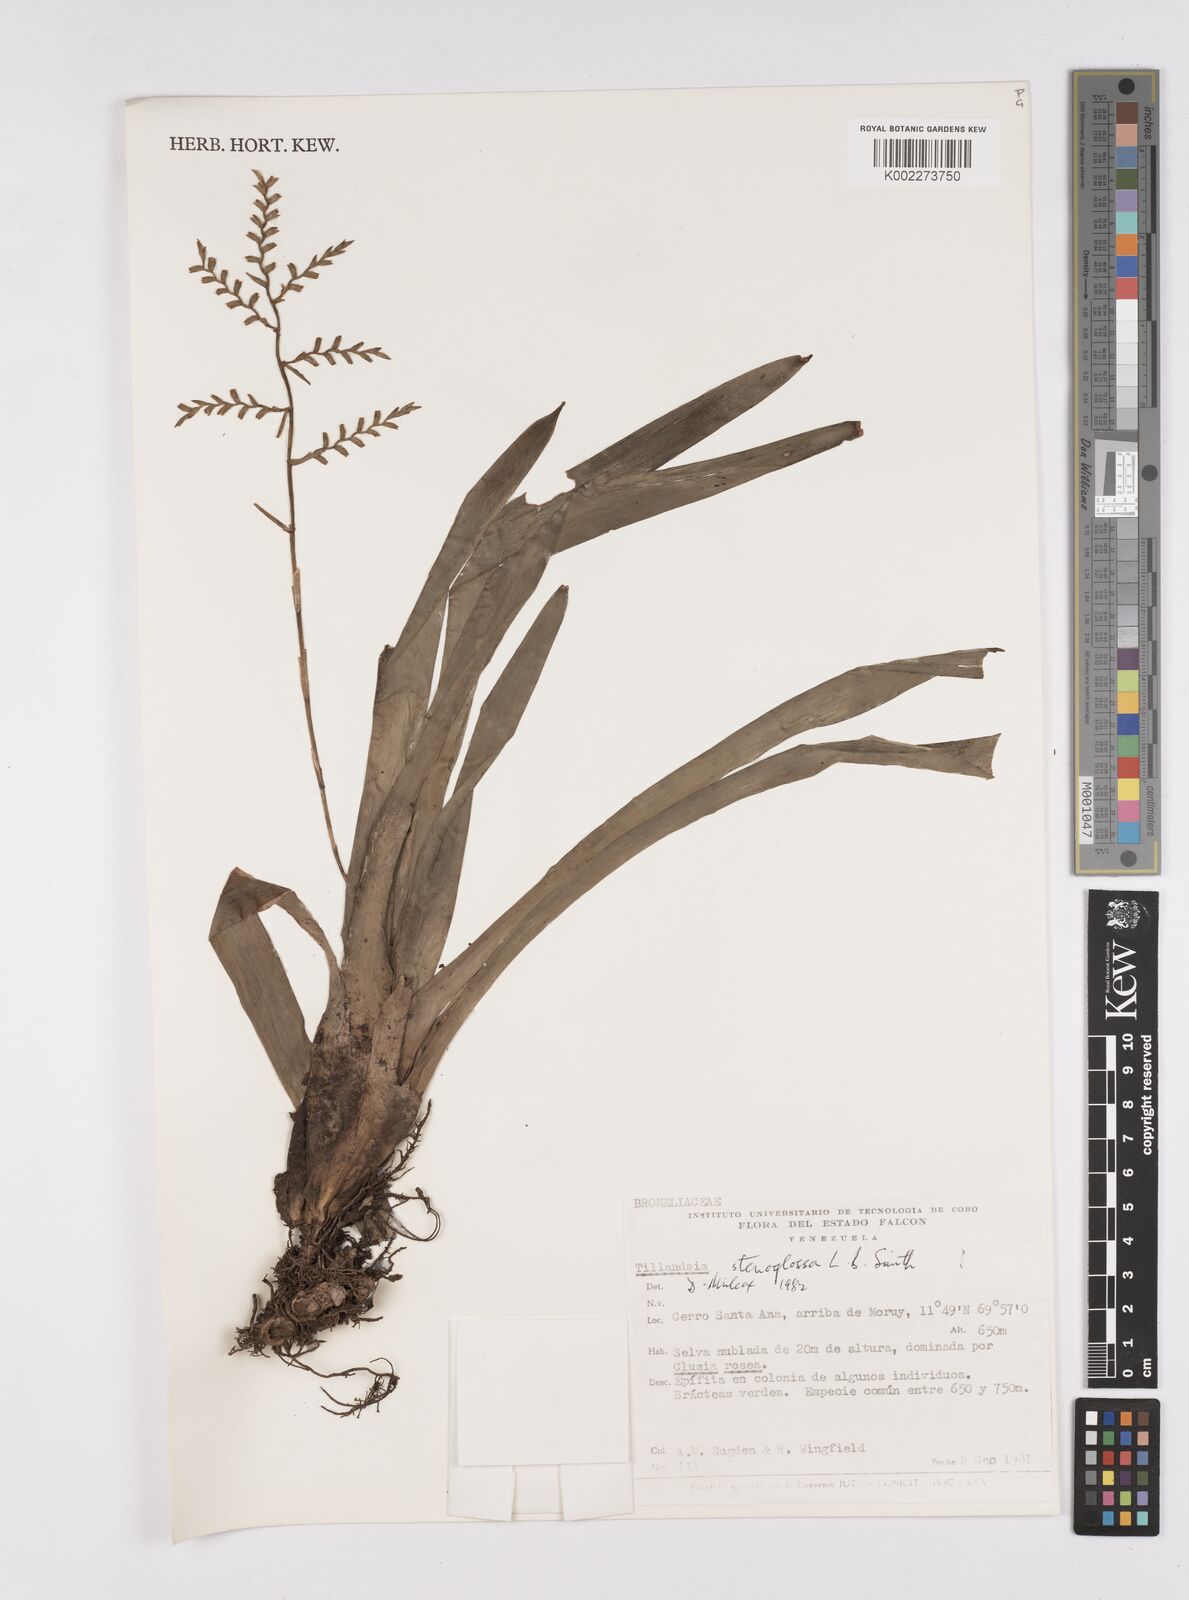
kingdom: Plantae
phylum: Tracheophyta
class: Liliopsida
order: Poales
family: Bromeliaceae
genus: Racinaea
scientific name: Racinaea spiculosa
